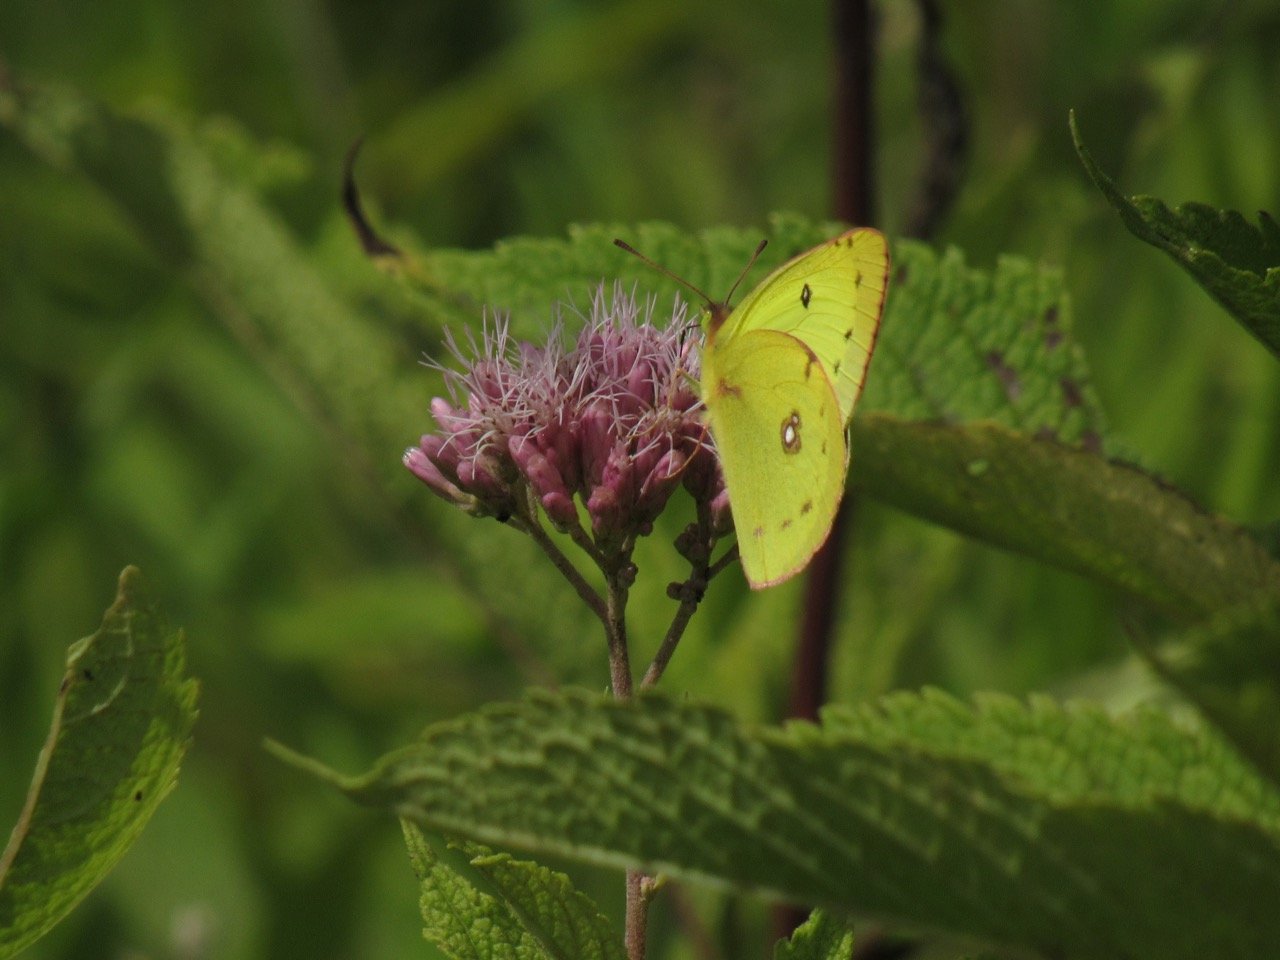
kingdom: Animalia
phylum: Arthropoda
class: Insecta
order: Lepidoptera
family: Pieridae
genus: Colias
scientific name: Colias philodice
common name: Clouded Sulphur
